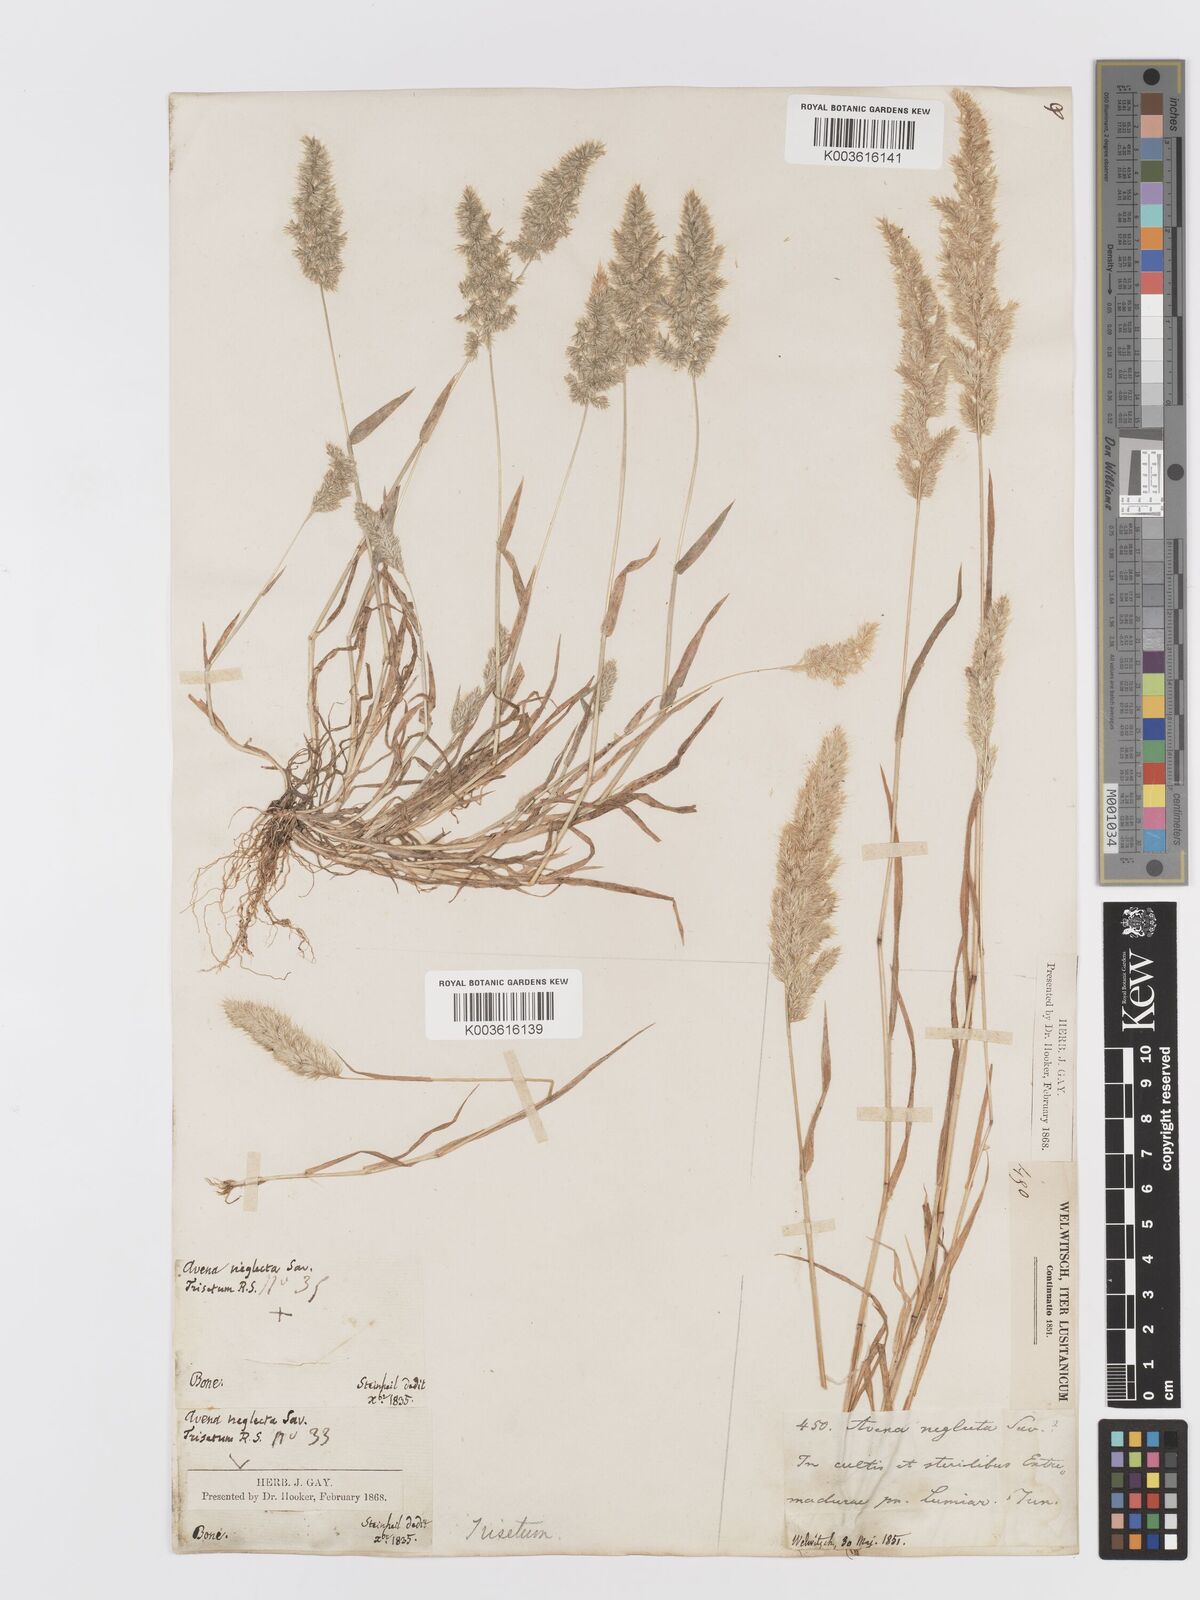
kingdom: Plantae
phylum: Tracheophyta
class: Liliopsida
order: Poales
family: Poaceae
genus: Trisetaria
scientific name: Trisetaria panicea
